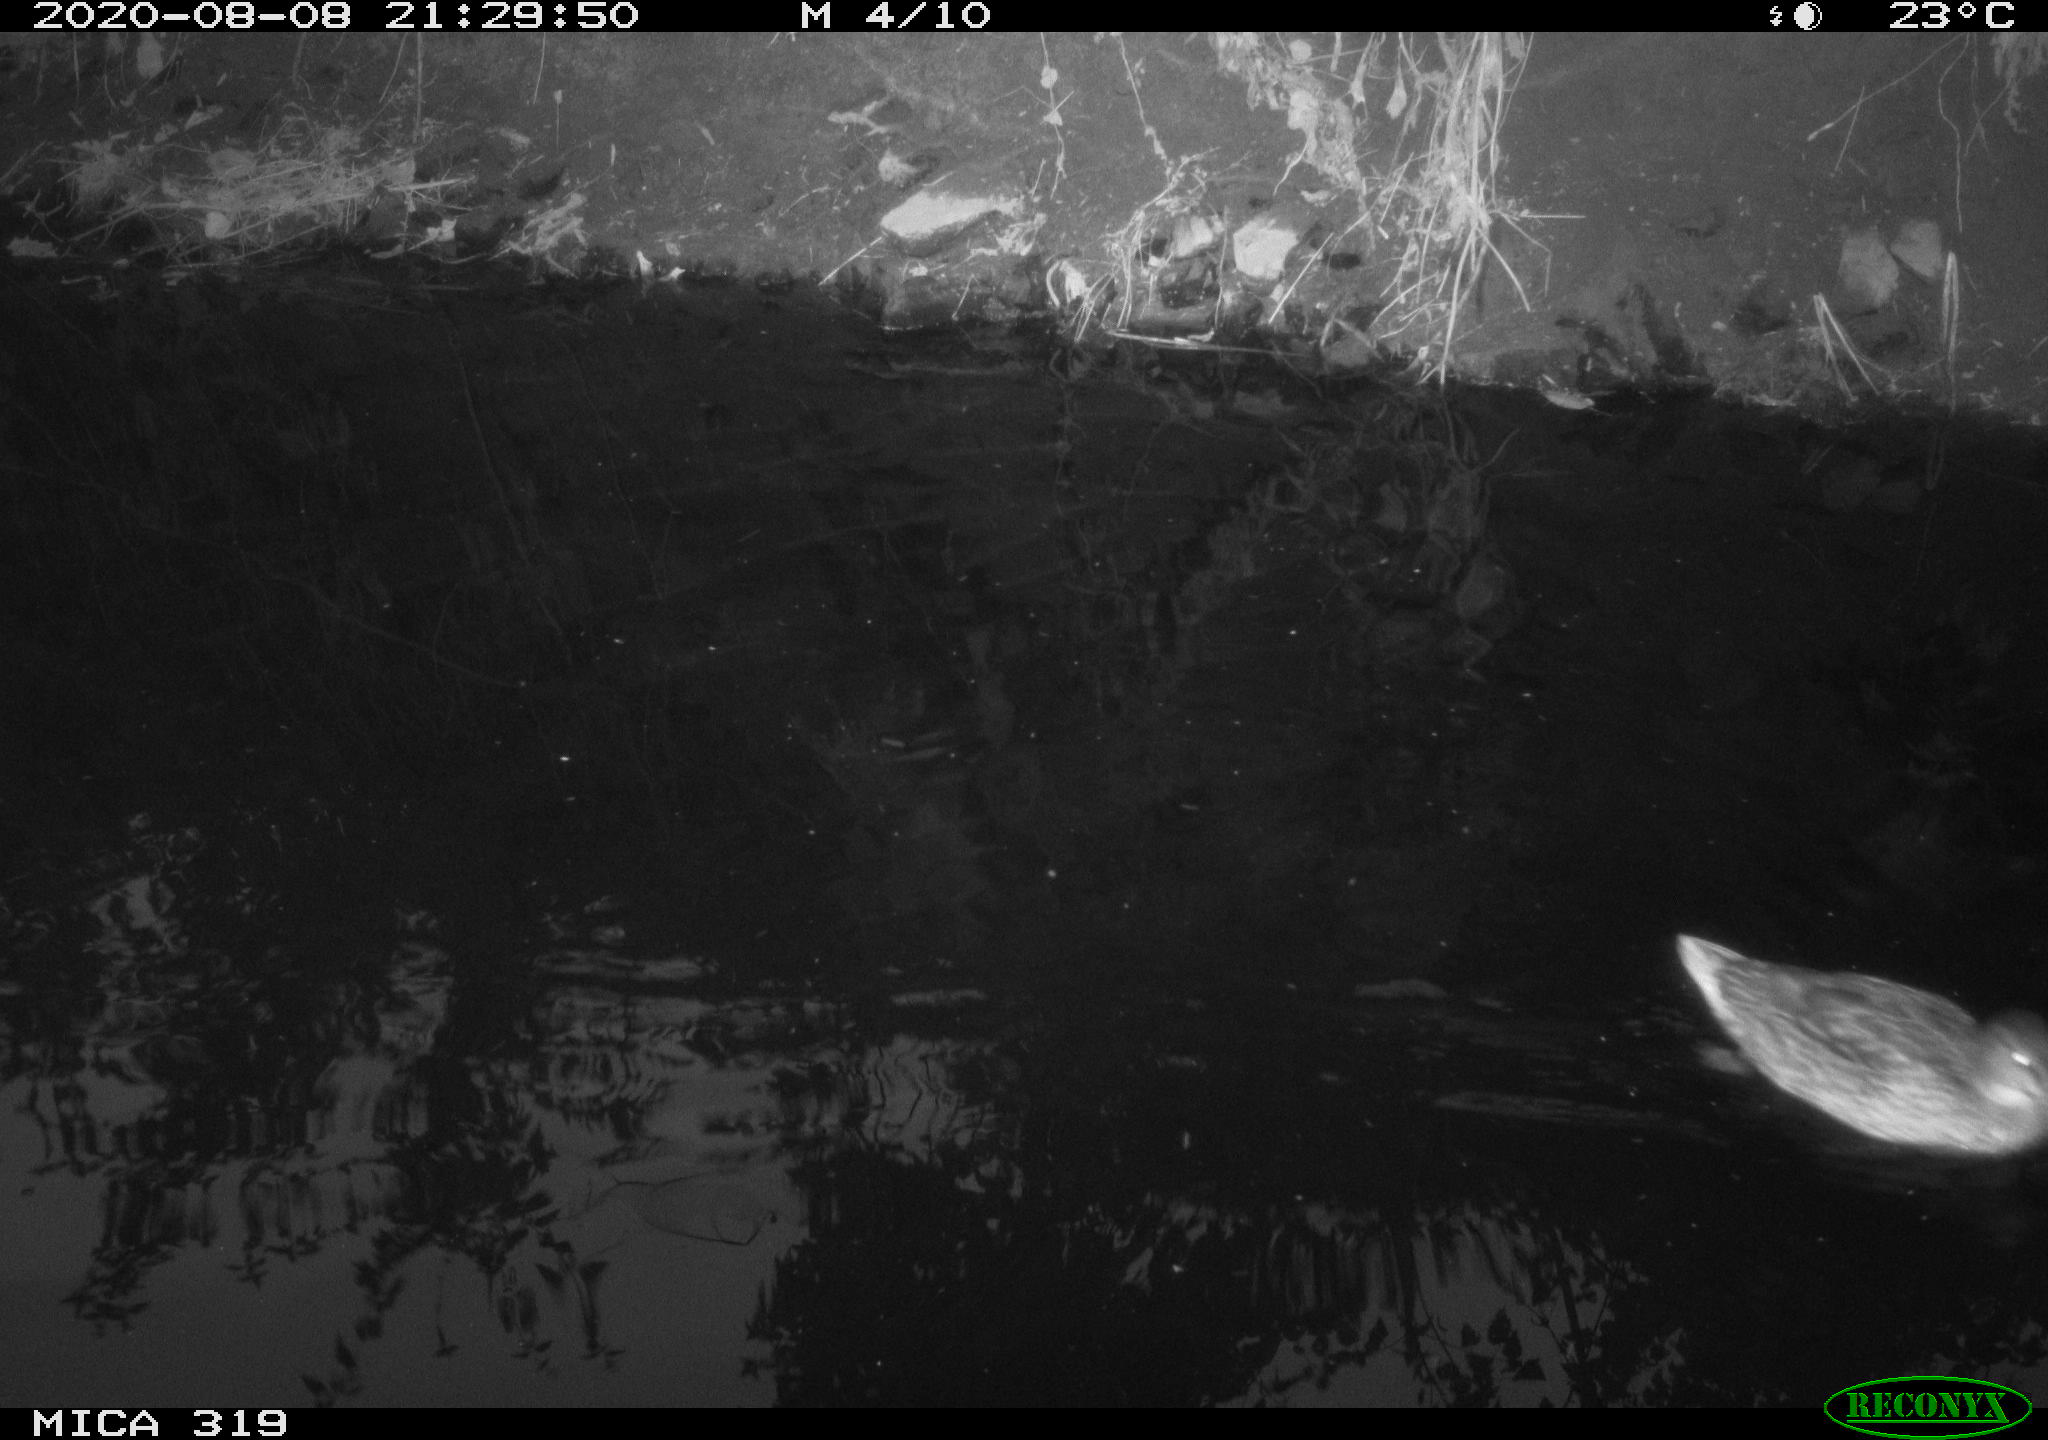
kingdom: Animalia
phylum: Chordata
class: Aves
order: Anseriformes
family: Anatidae
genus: Anas
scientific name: Anas platyrhynchos
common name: Mallard
